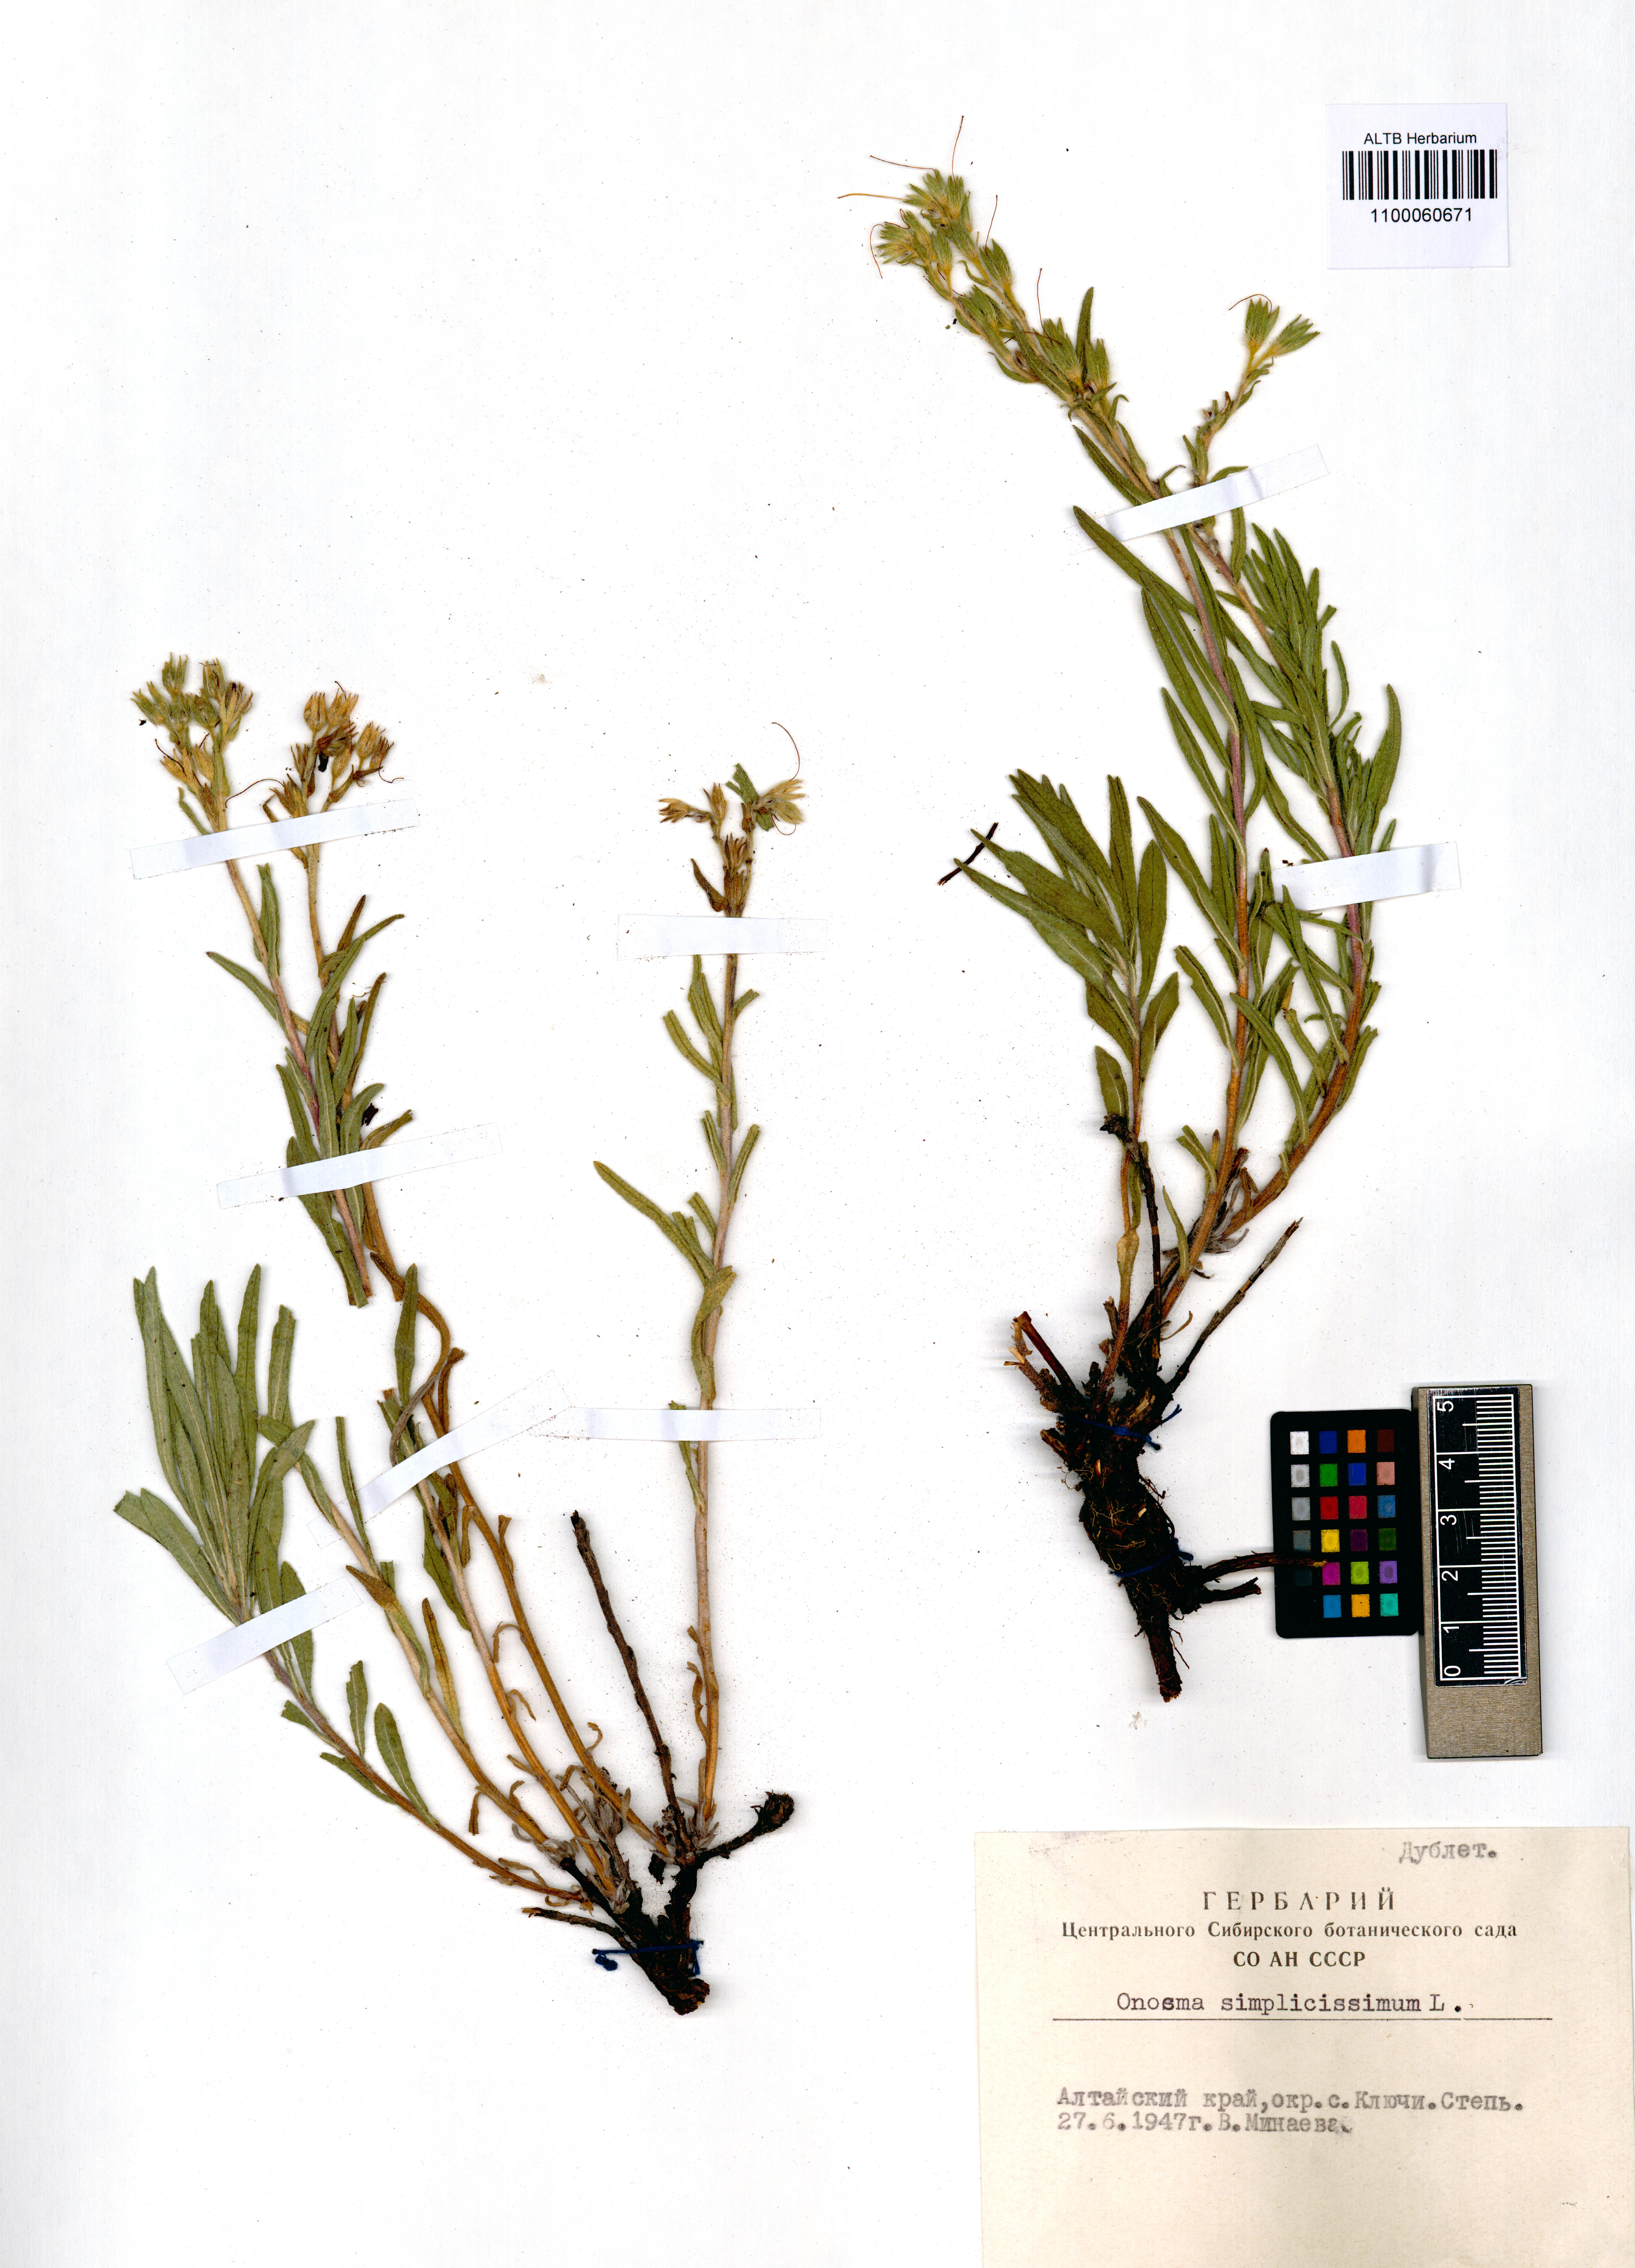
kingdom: Plantae
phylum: Tracheophyta
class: Magnoliopsida
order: Boraginales
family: Boraginaceae
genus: Onosma
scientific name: Onosma simplicissima
